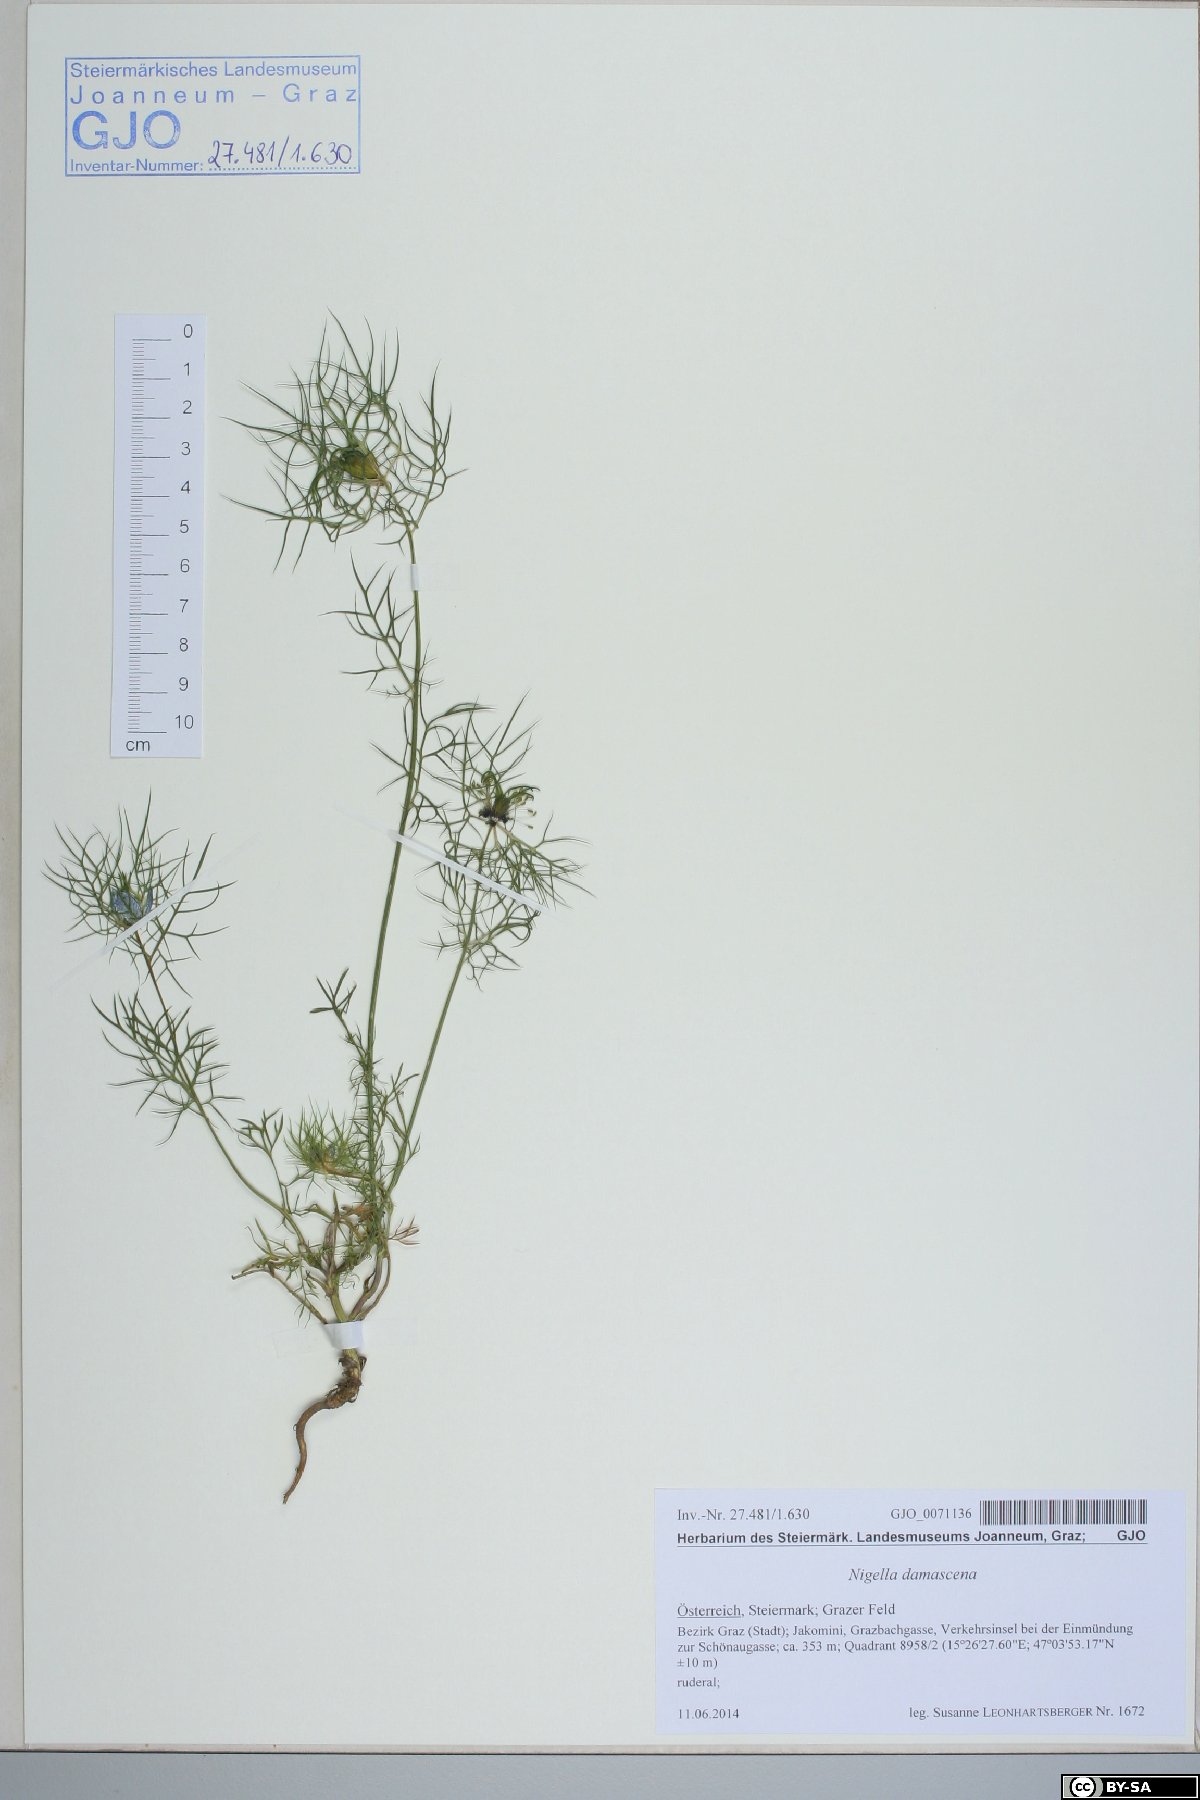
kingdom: Plantae
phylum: Tracheophyta
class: Magnoliopsida
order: Ranunculales
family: Ranunculaceae
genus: Nigella
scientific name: Nigella damascena
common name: Love-in-a-mist
